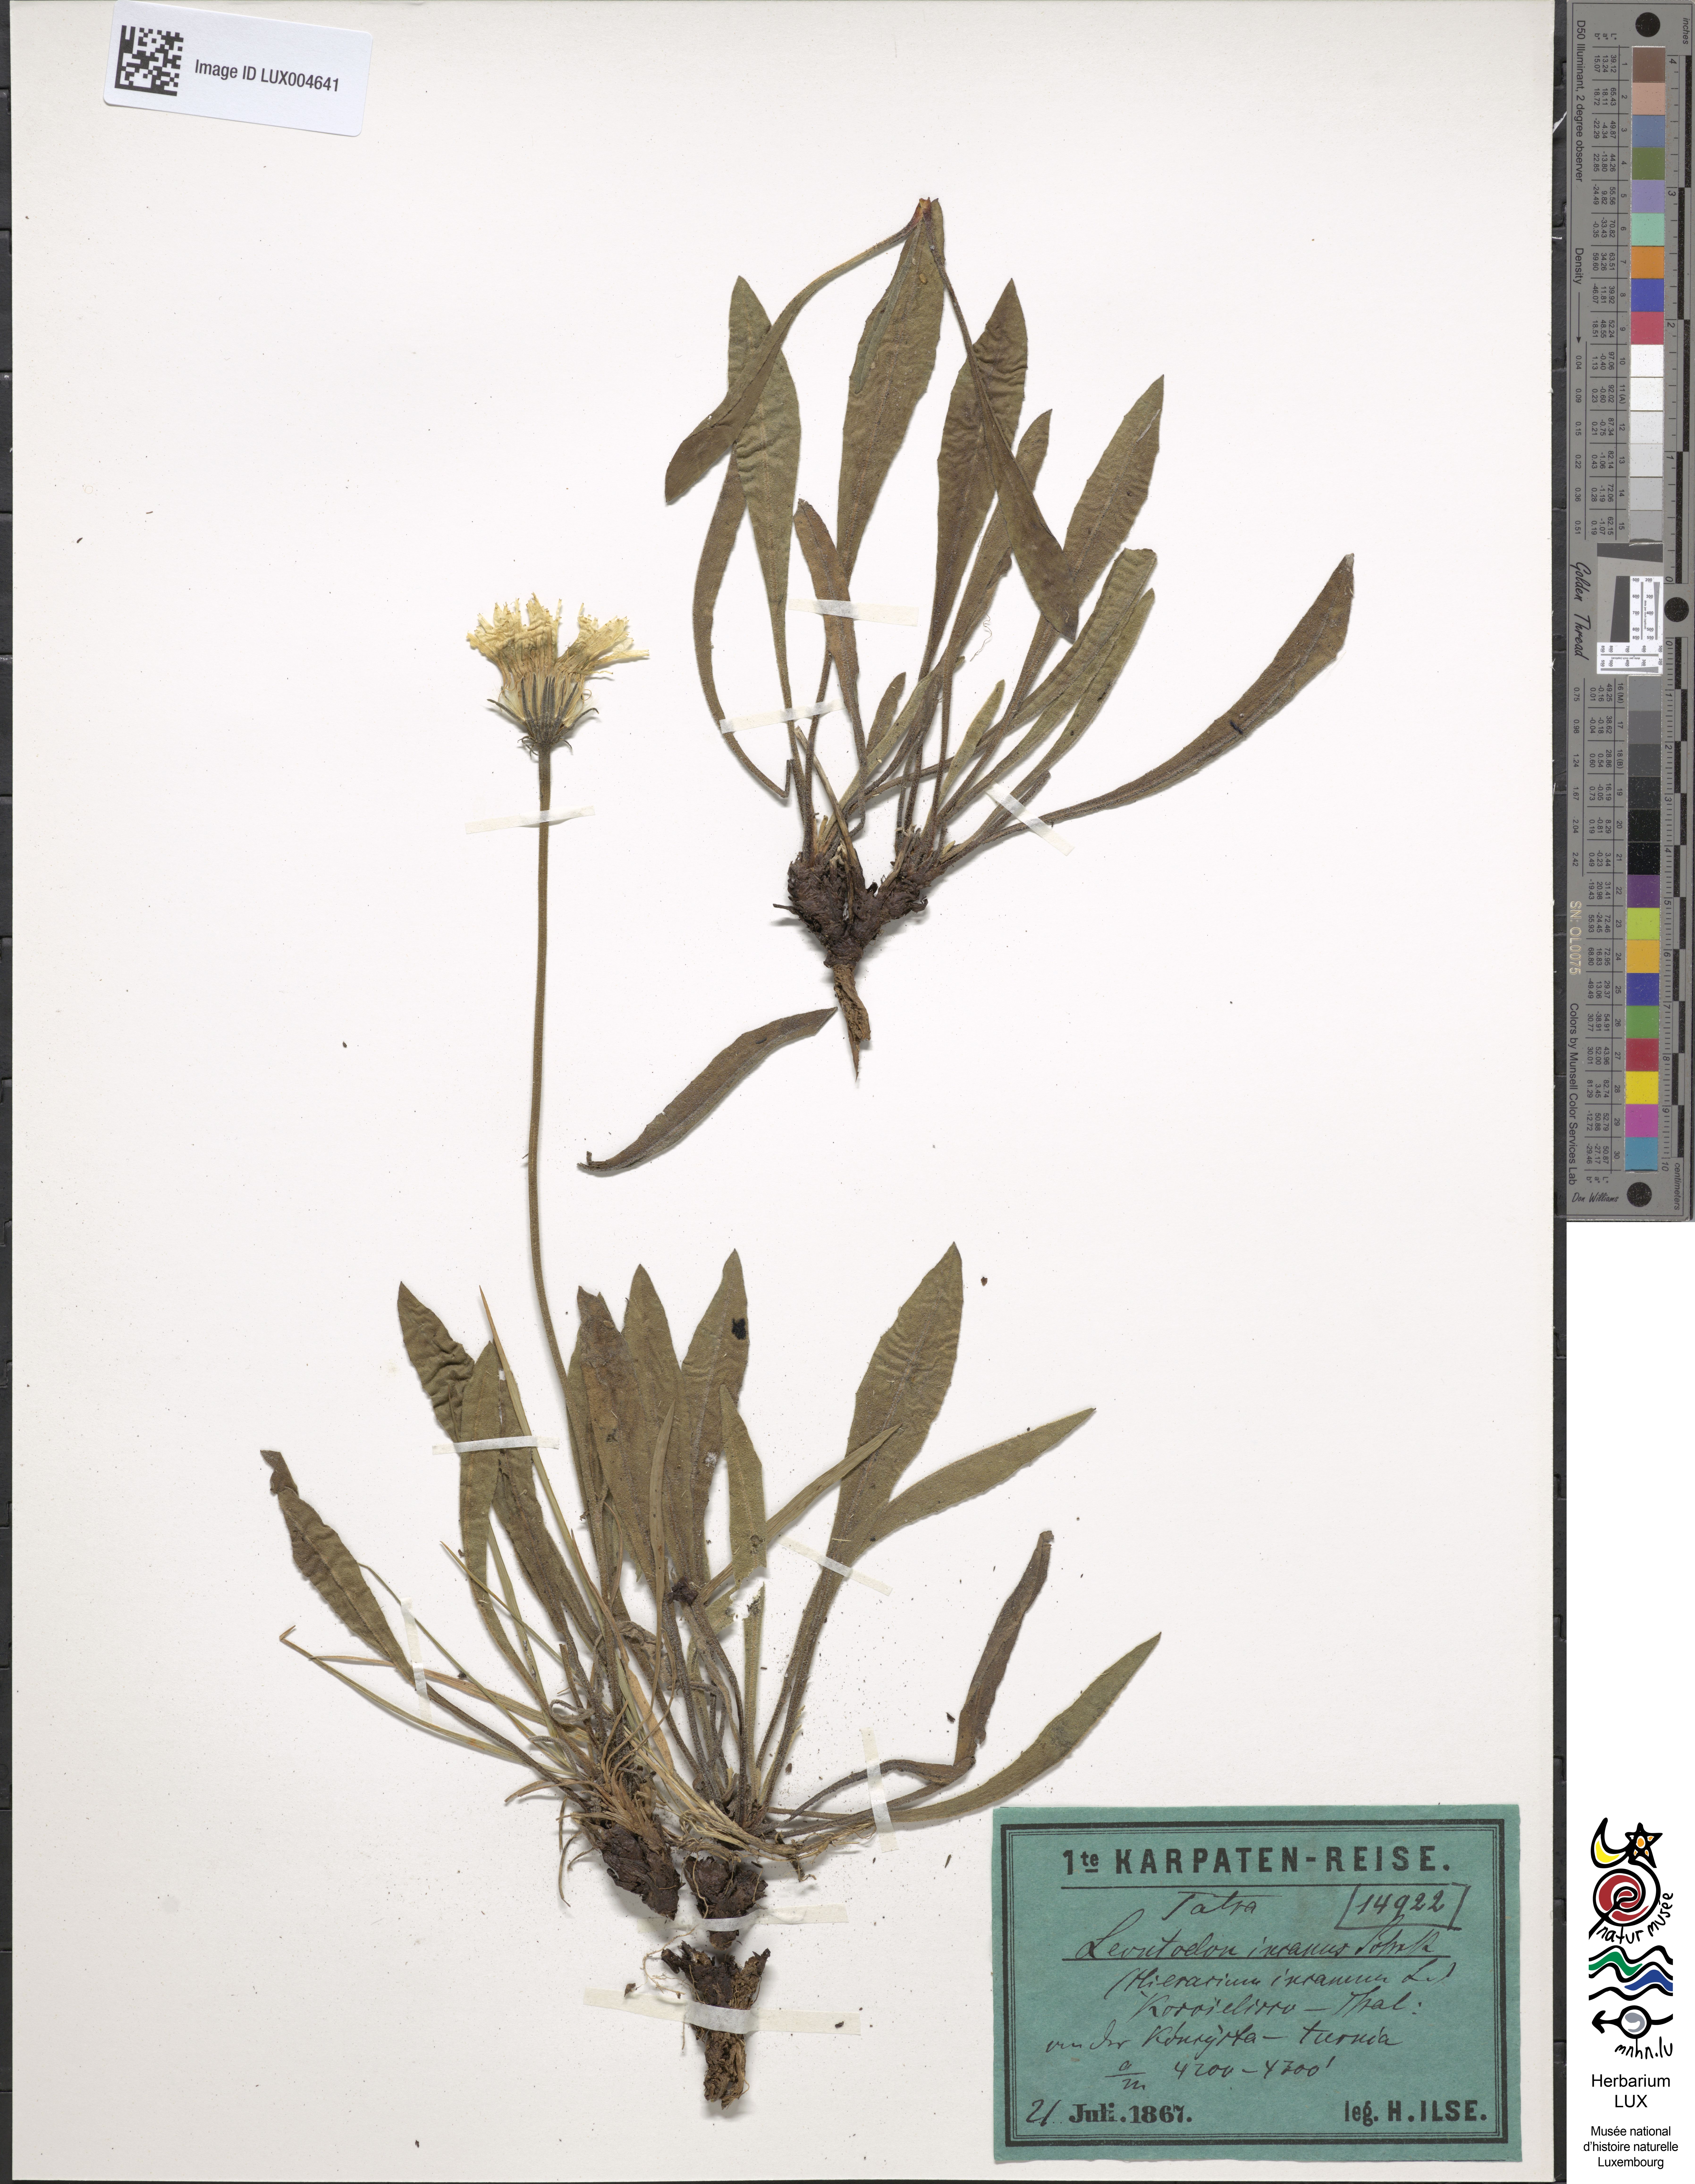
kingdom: Plantae
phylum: Tracheophyta
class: Magnoliopsida
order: Asterales
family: Asteraceae
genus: Leontodon
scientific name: Leontodon incanus
